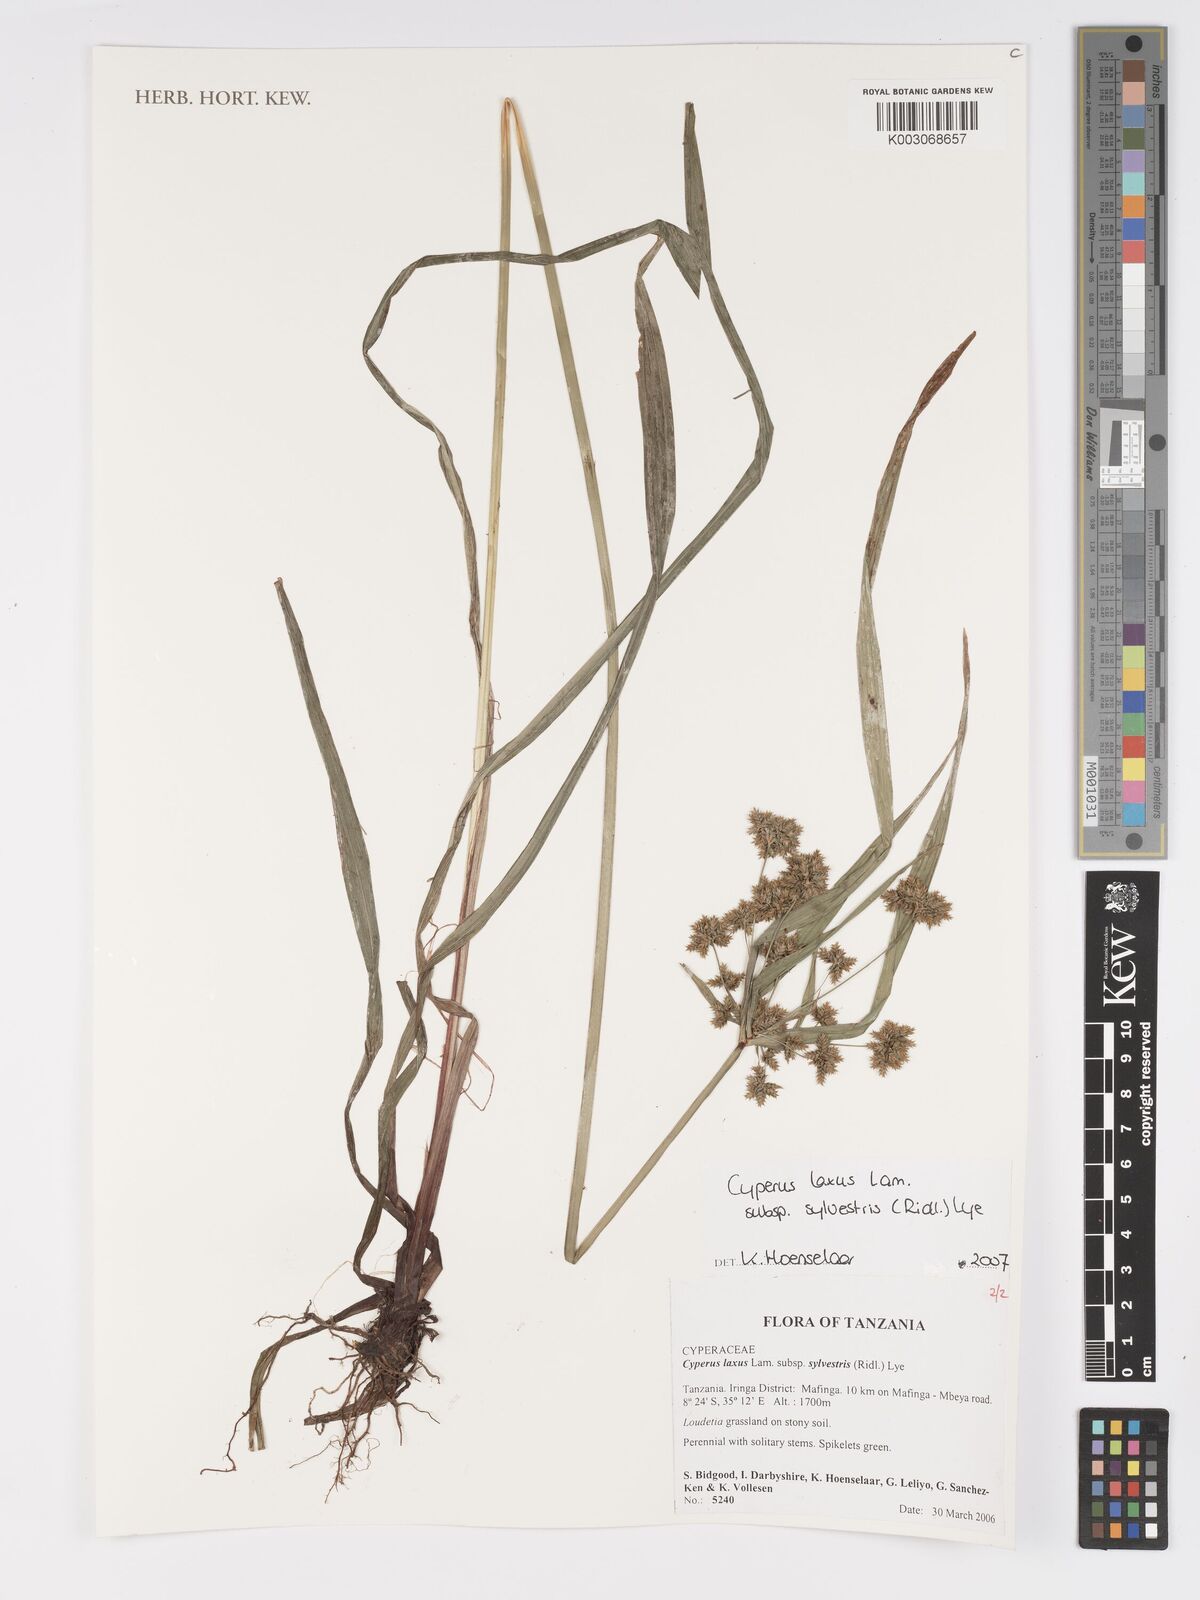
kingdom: Plantae
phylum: Tracheophyta
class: Liliopsida
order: Poales
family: Cyperaceae
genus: Cyperus
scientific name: Cyperus sylvestris
